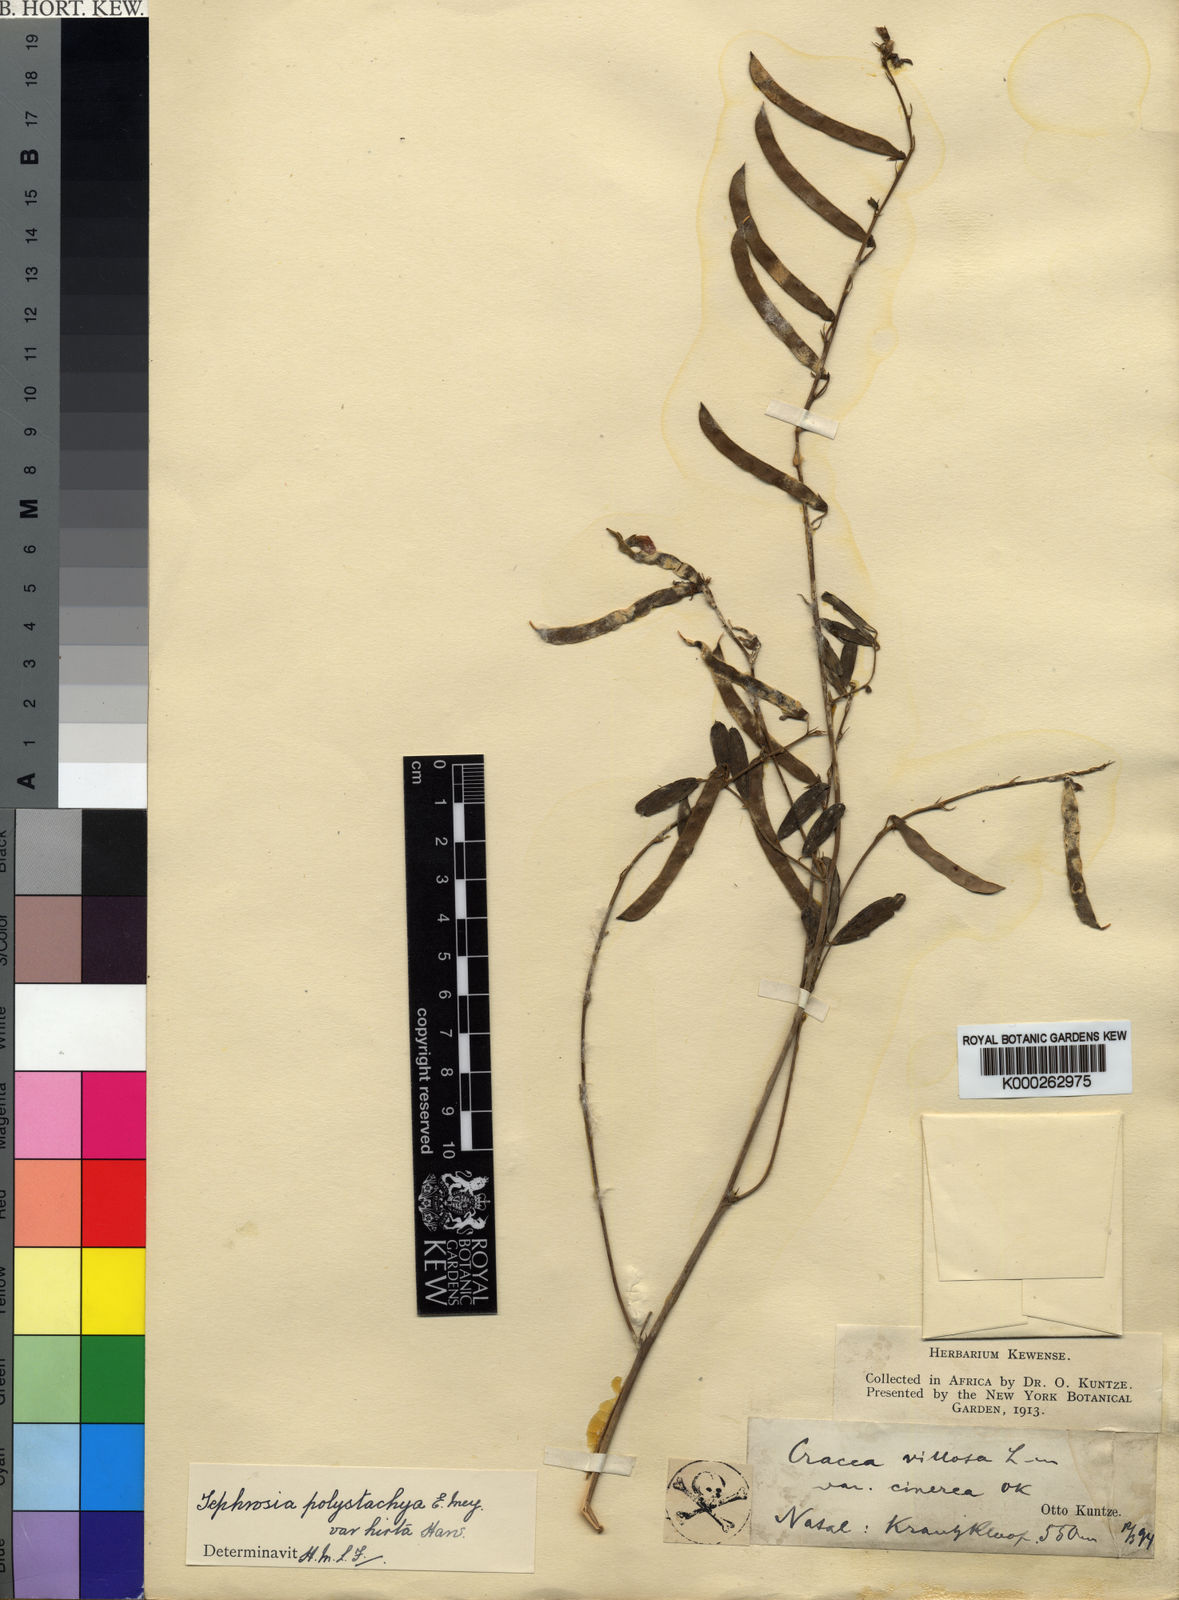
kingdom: Plantae
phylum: Tracheophyta
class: Magnoliopsida
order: Fabales
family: Fabaceae
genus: Tephrosia
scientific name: Tephrosia polystachya
